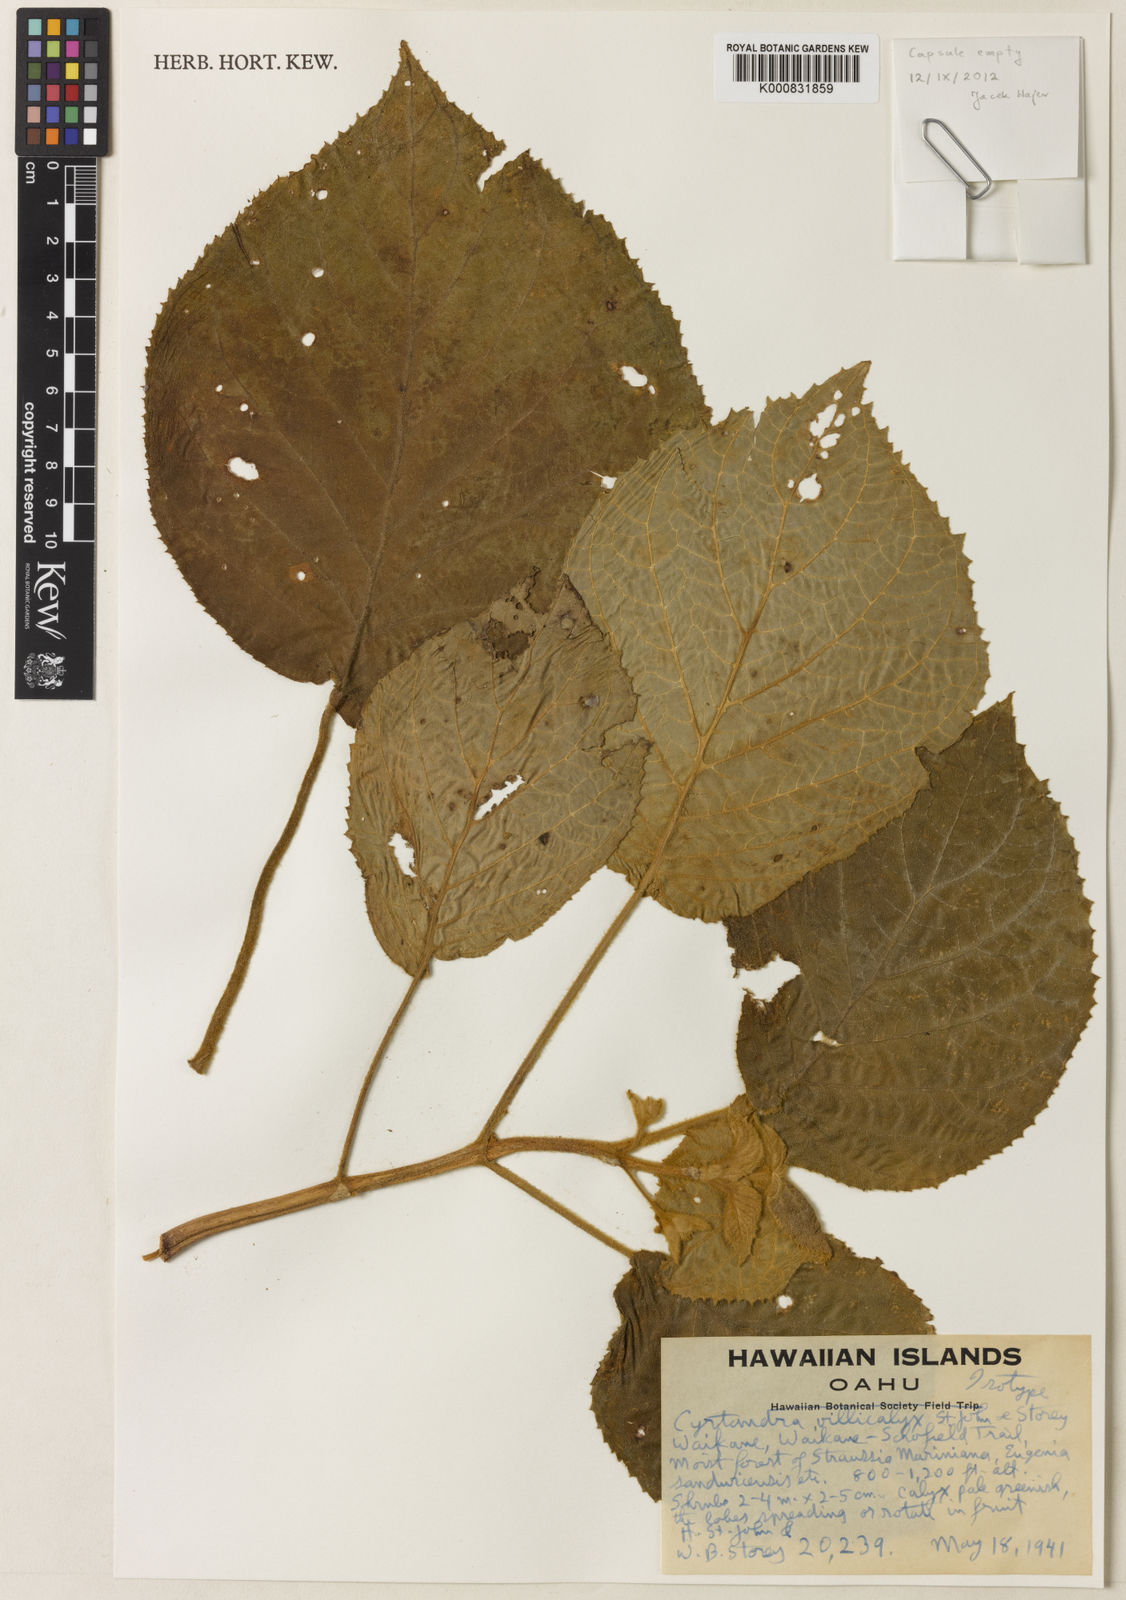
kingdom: Plantae
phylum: Tracheophyta
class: Magnoliopsida
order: Lamiales
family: Gesneriaceae
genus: Cyrtandra
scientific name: Cyrtandra villicalyx
